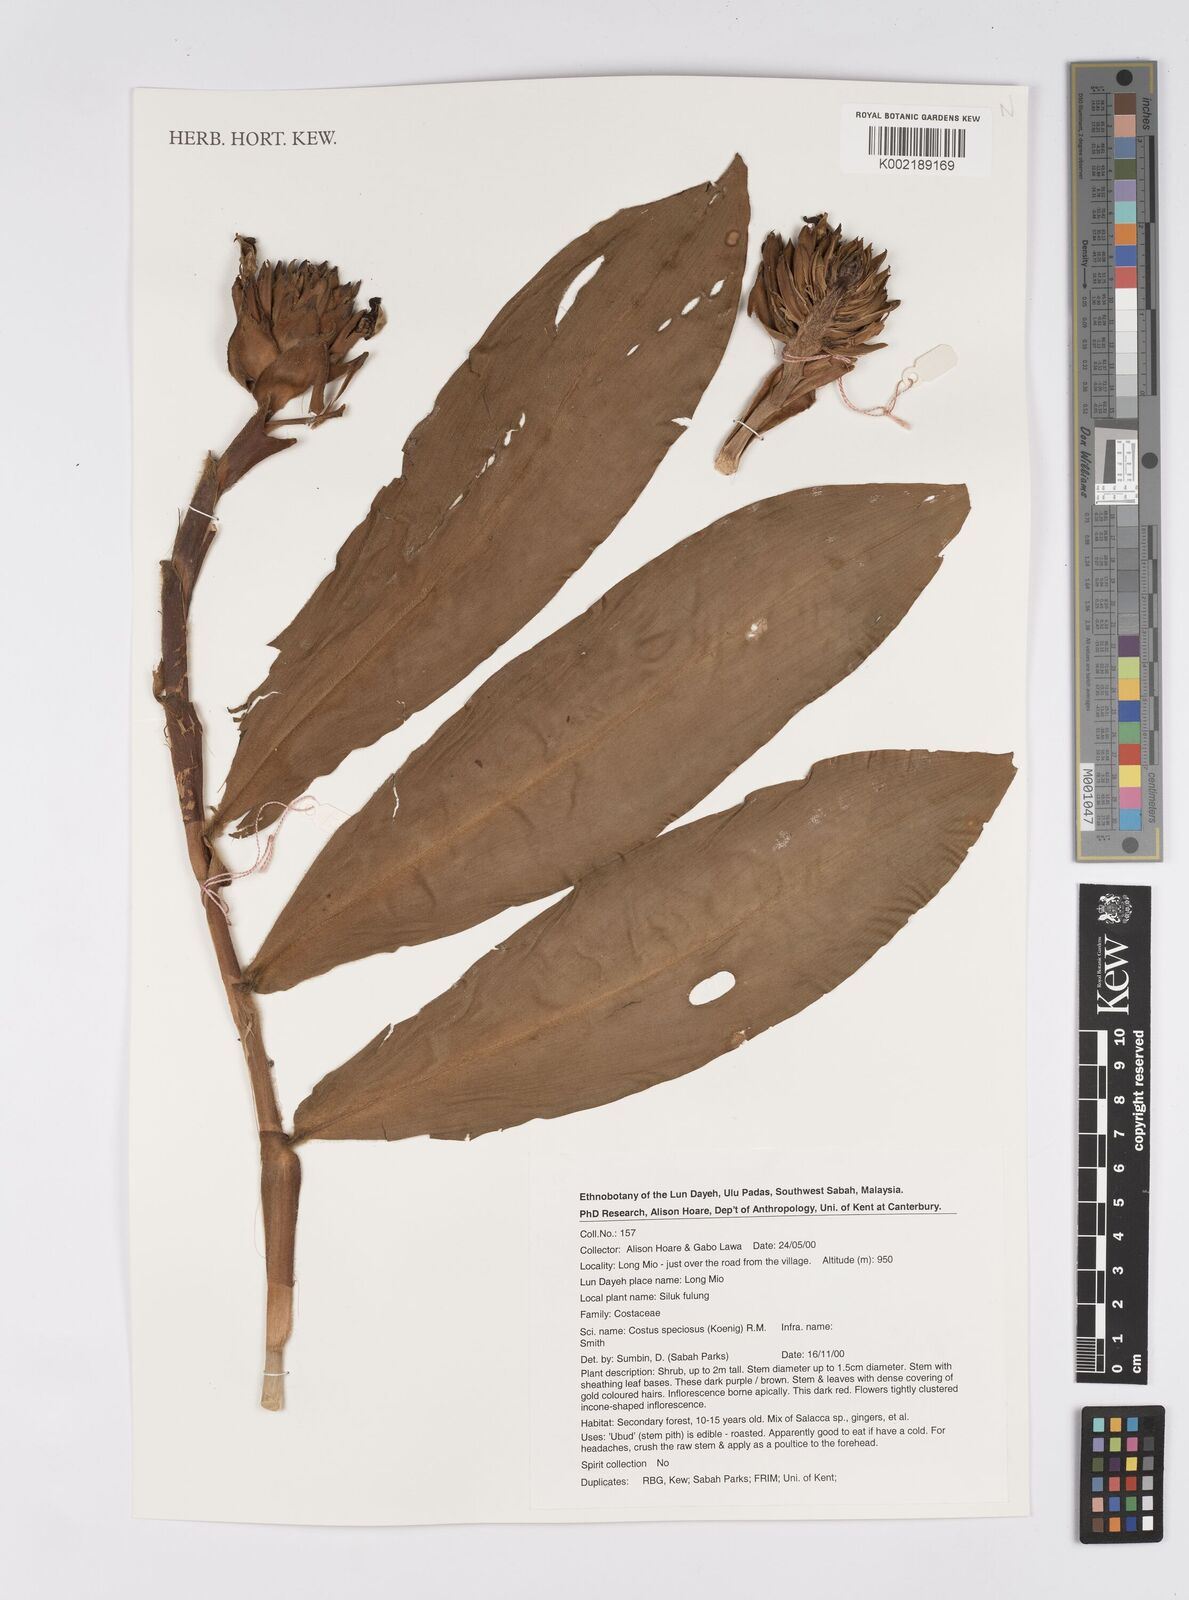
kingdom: Plantae
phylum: Tracheophyta
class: Liliopsida
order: Zingiberales
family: Costaceae
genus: Hellenia
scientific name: Hellenia speciosa
